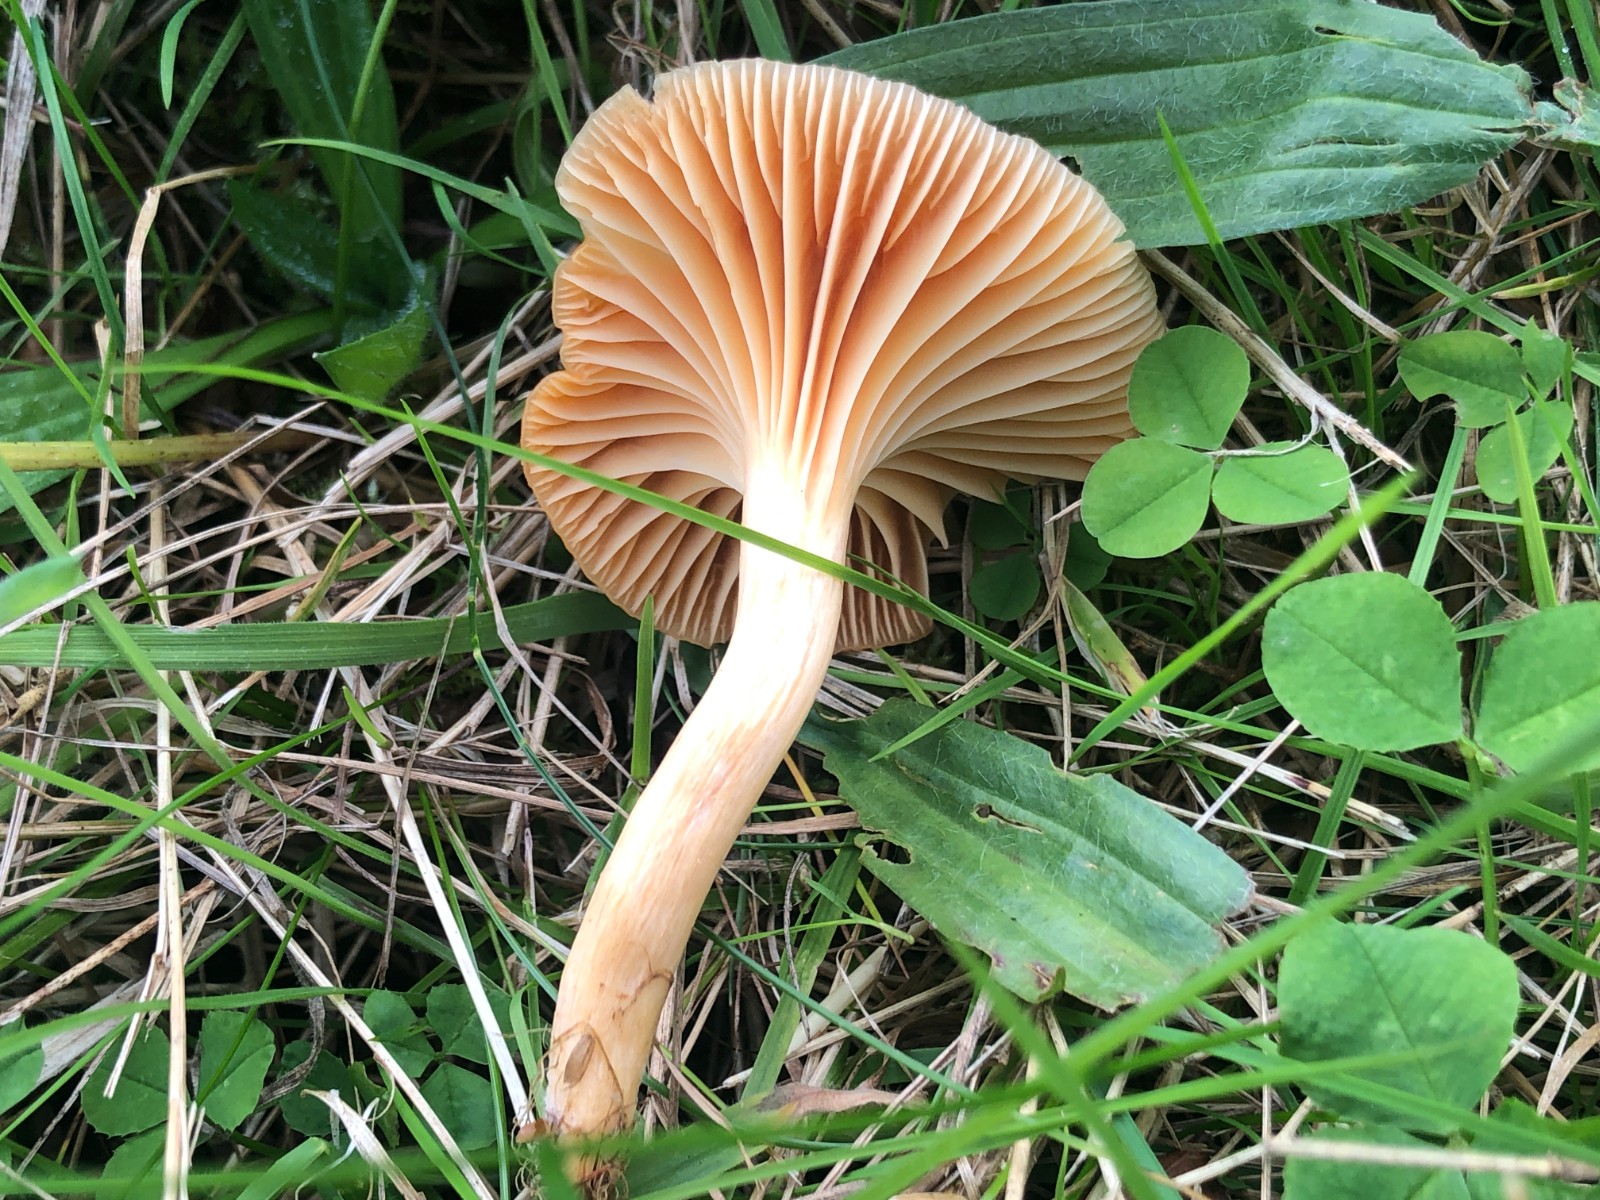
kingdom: Fungi
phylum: Basidiomycota
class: Agaricomycetes
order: Agaricales
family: Hygrophoraceae
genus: Cuphophyllus
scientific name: Cuphophyllus pratensis
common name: eng-vokshat
